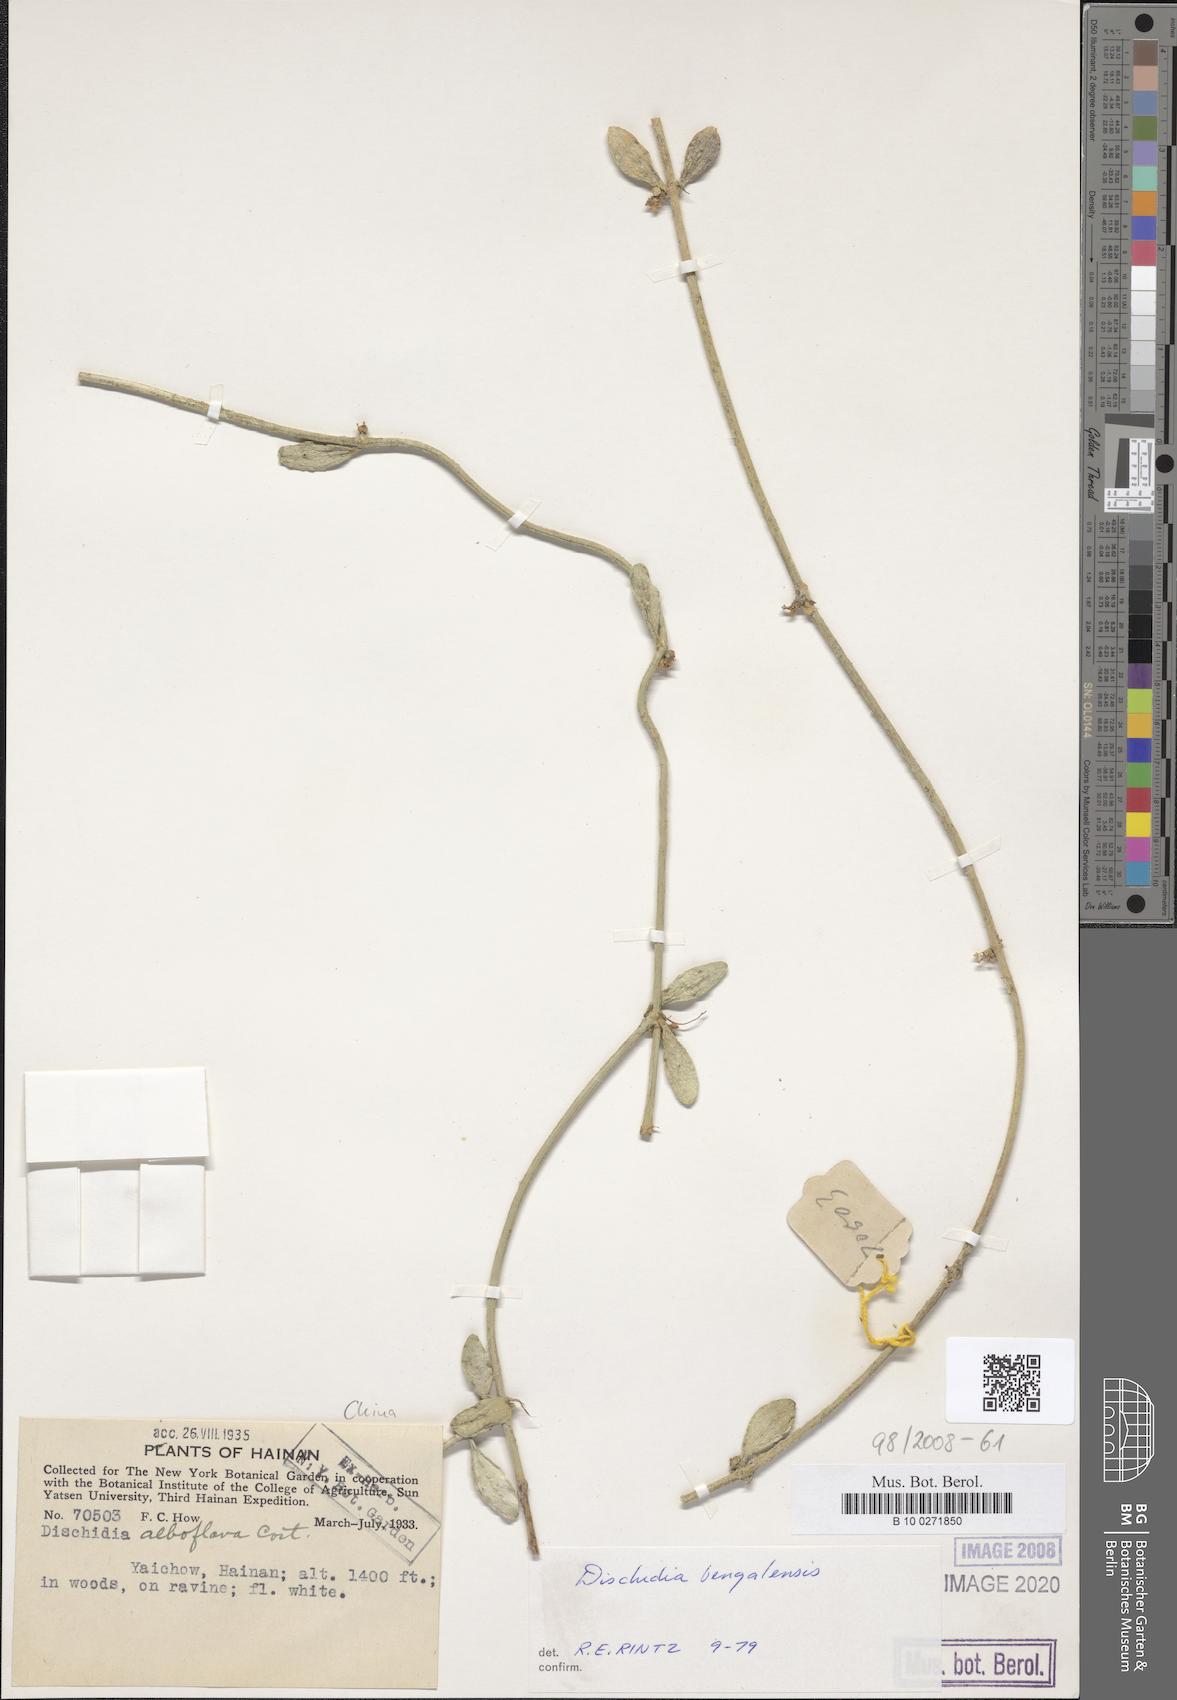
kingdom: Plantae
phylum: Tracheophyta
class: Magnoliopsida
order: Gentianales
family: Apocynaceae
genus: Dischidia
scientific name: Dischidia bengalensis
